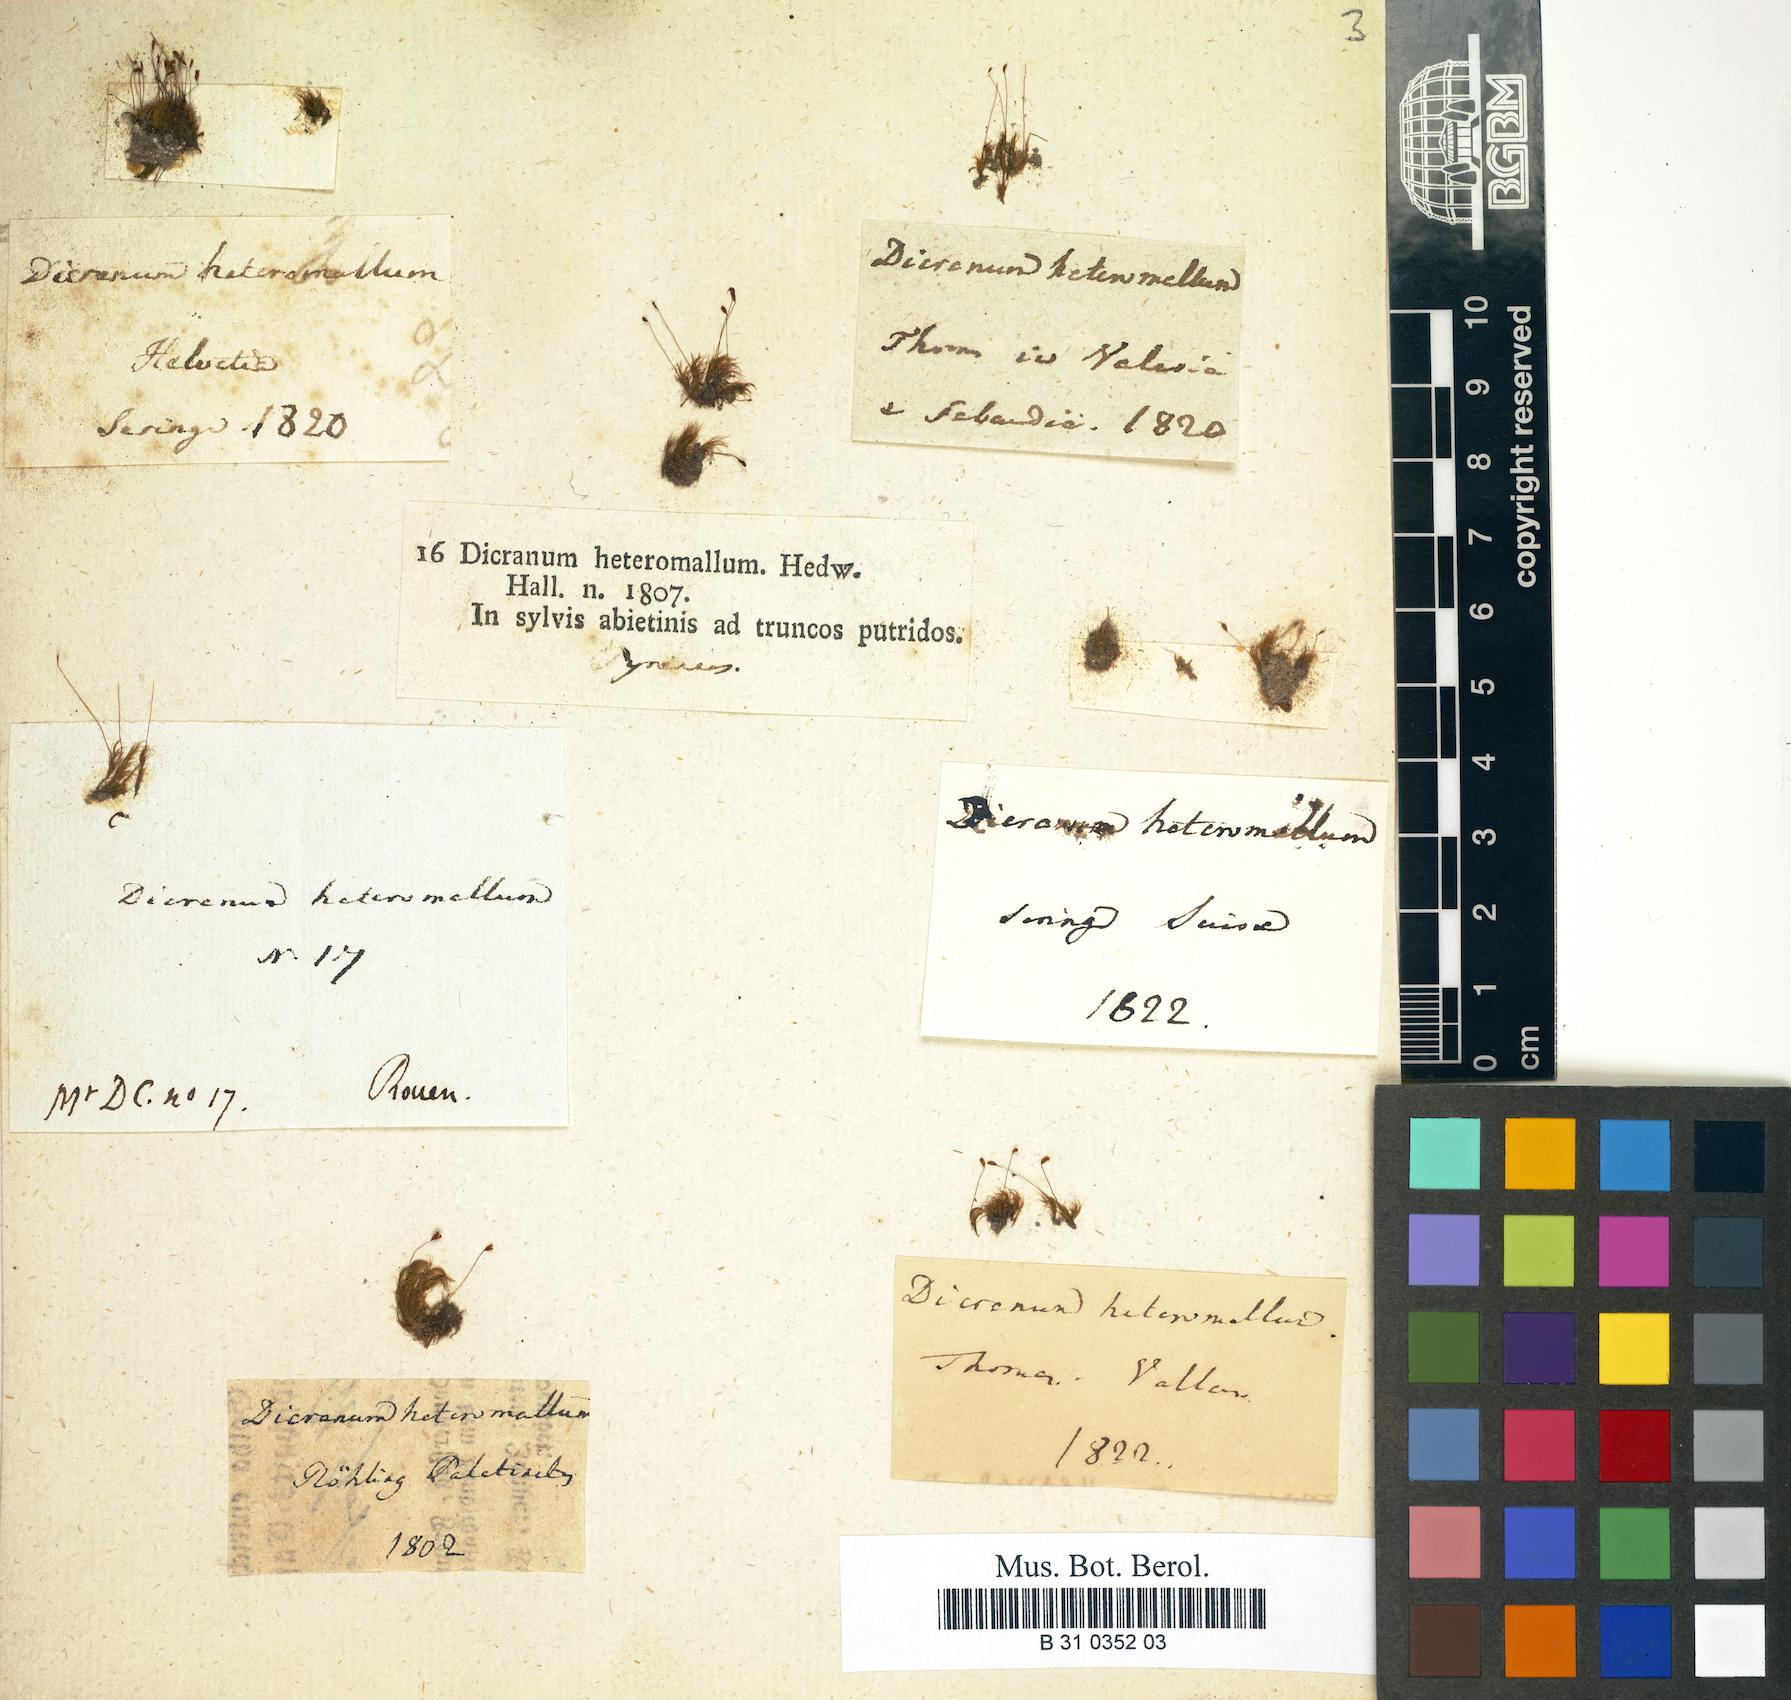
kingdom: Plantae
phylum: Bryophyta
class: Bryopsida
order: Dicranales
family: Dicranellaceae
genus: Dicranella
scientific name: Dicranella heteromalla
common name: Silky forklet moss
